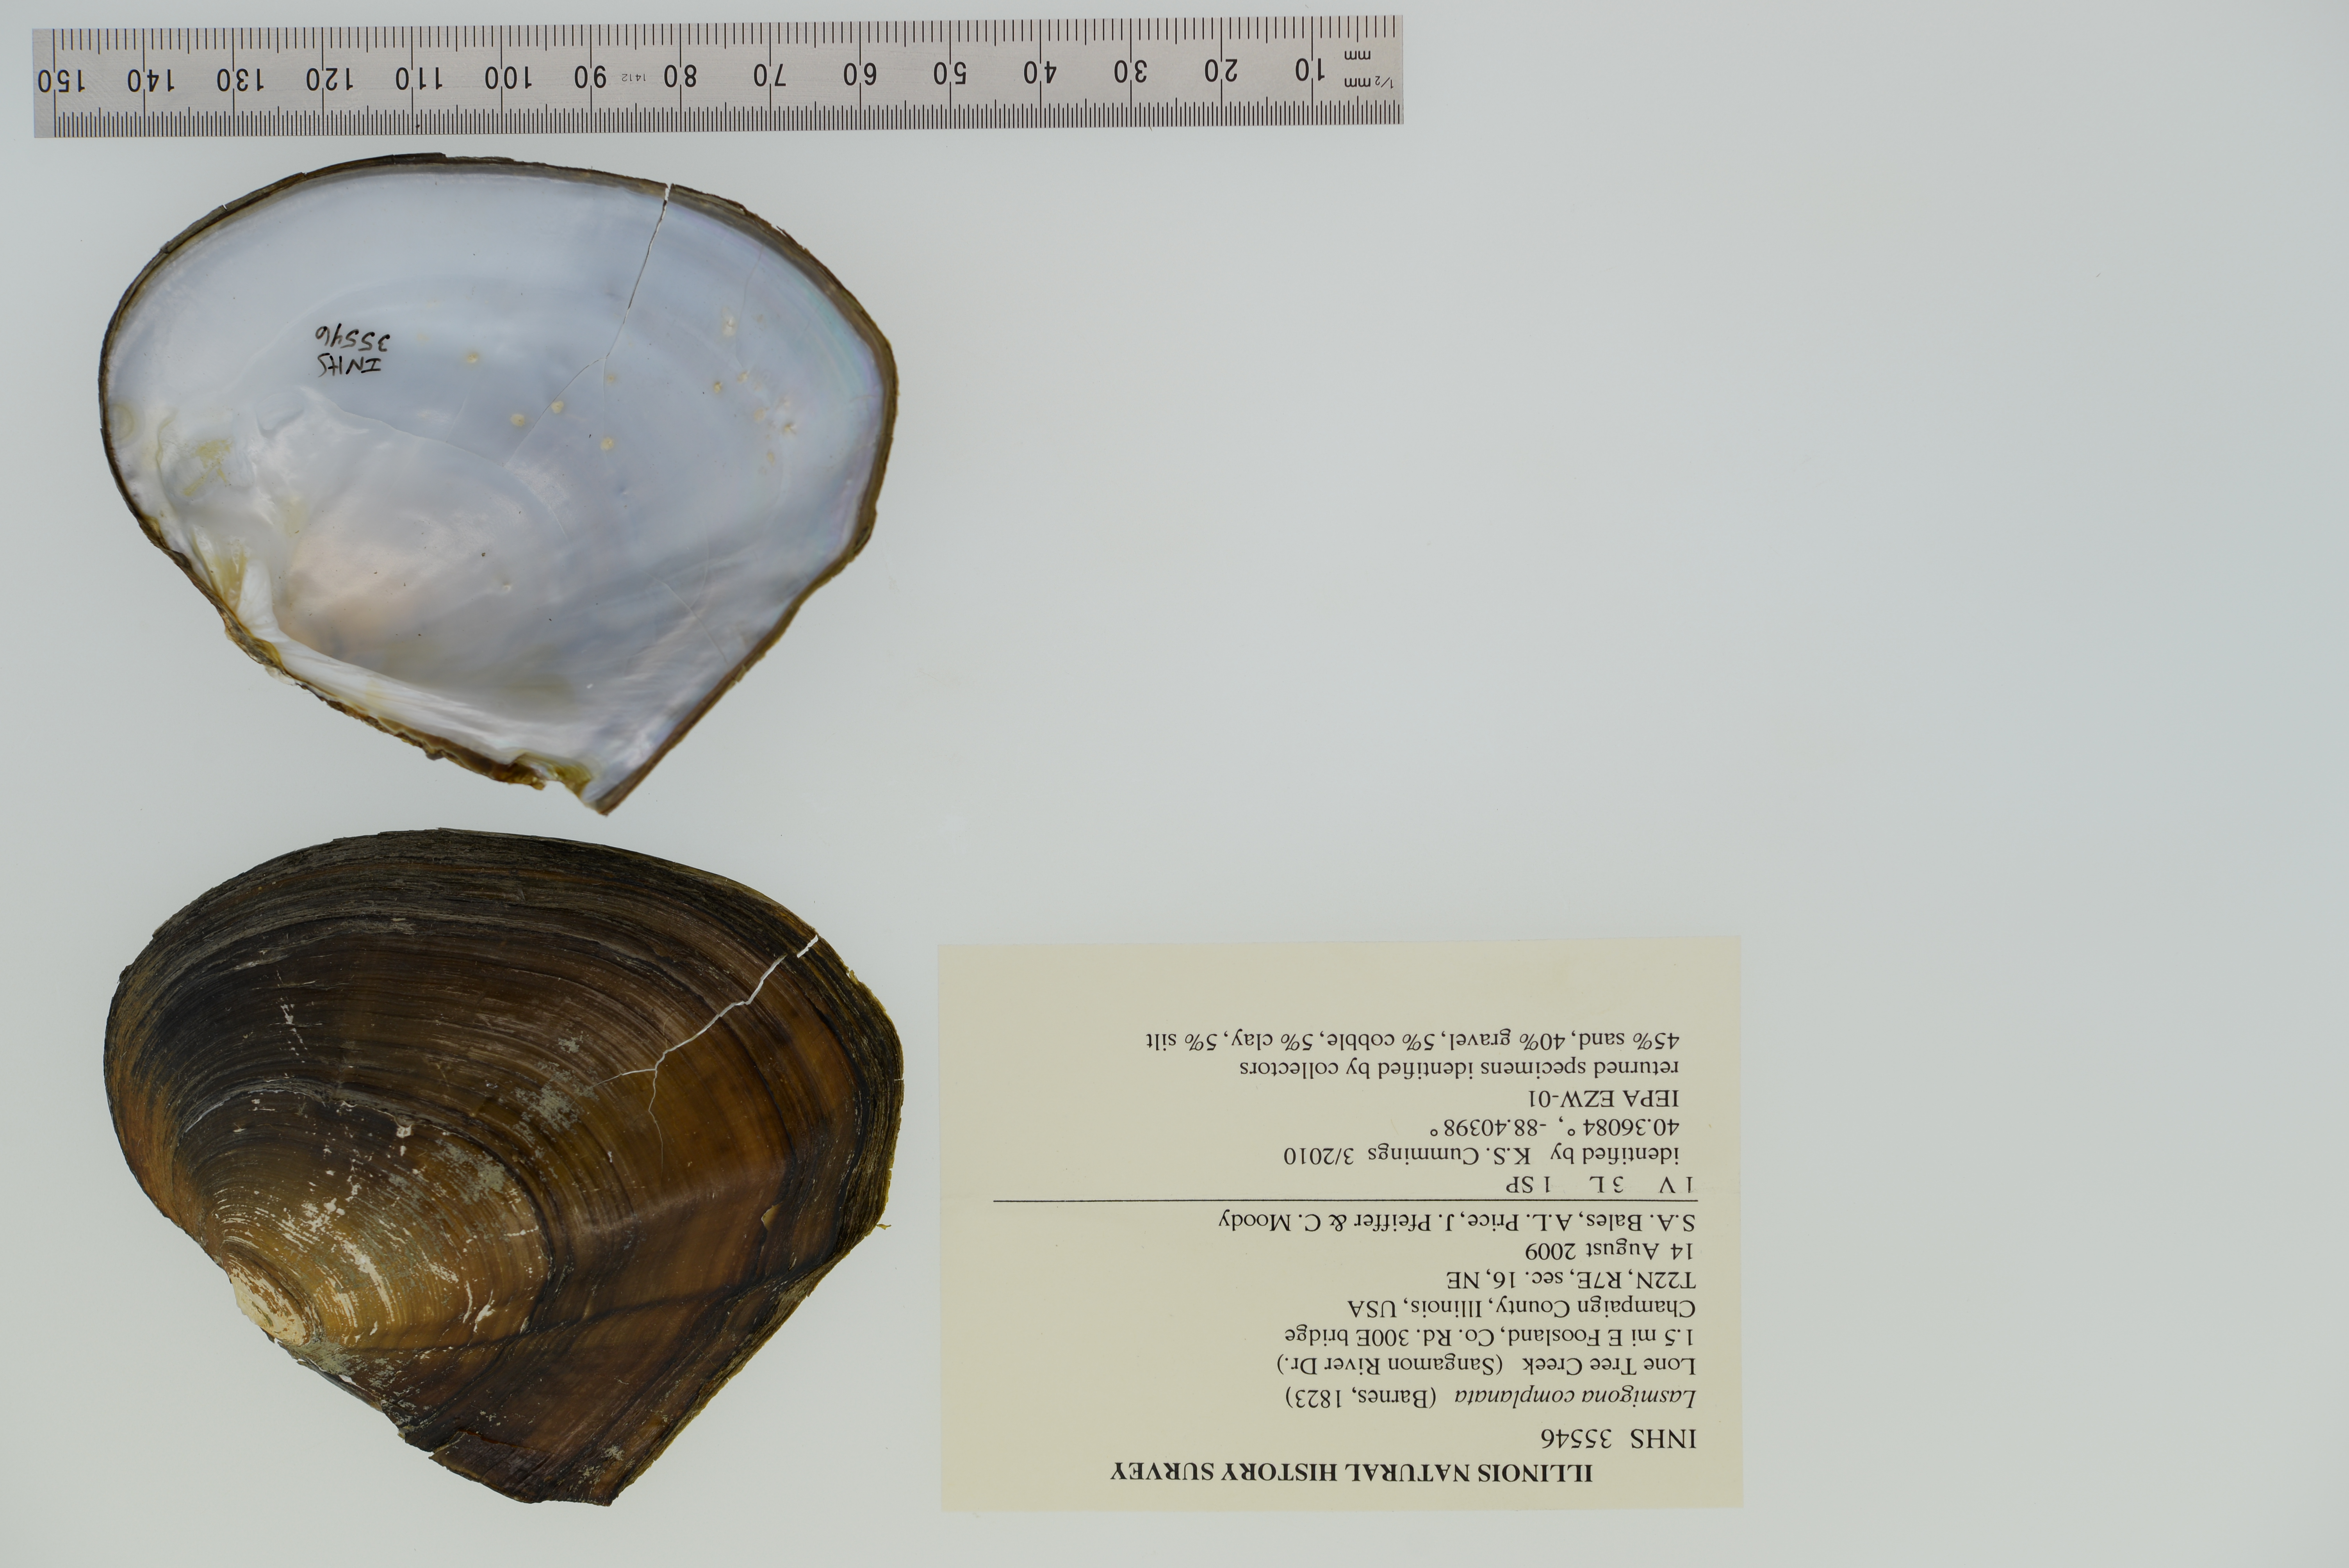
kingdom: Animalia
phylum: Mollusca
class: Bivalvia
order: Unionida
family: Unionidae
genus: Lasmigona
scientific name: Lasmigona complanata
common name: White heelsplitter
